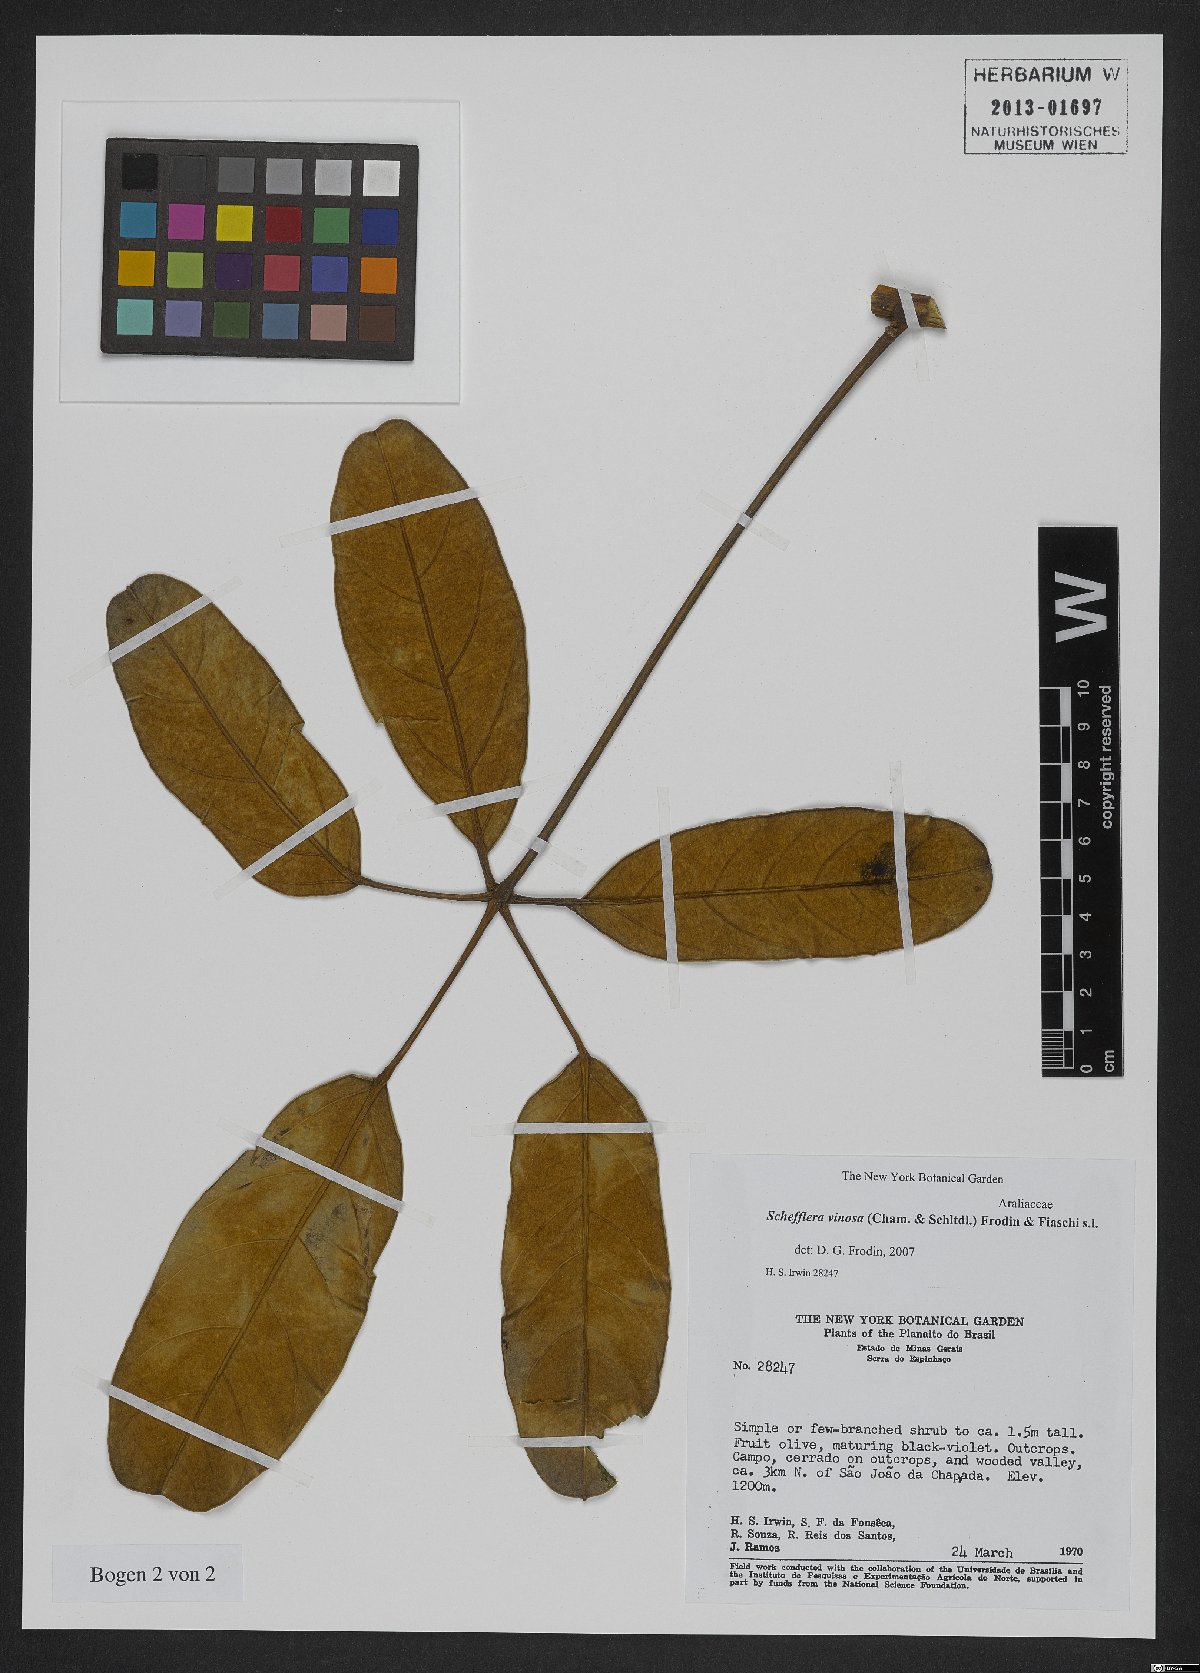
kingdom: Plantae
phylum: Tracheophyta
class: Magnoliopsida
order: Apiales
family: Araliaceae
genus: Didymopanax
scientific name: Didymopanax vinosus
